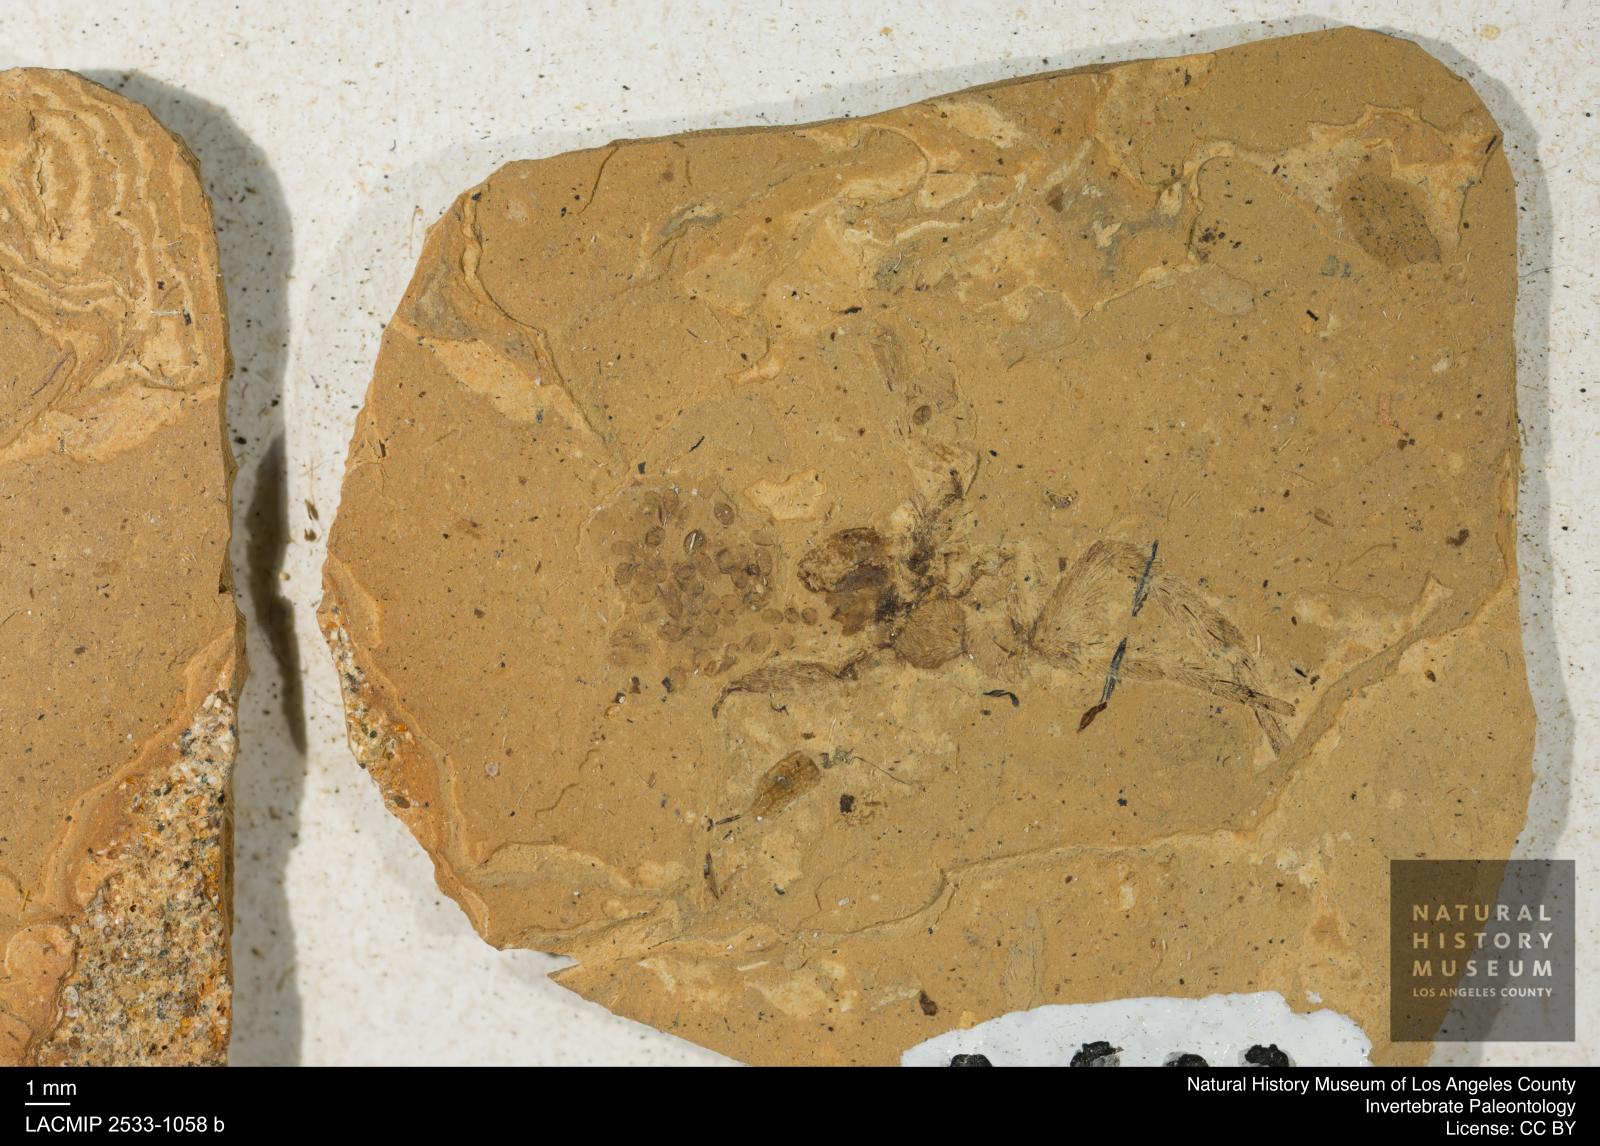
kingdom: Animalia
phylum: Arthropoda
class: Arachnida
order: Araneae
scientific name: Araneae
